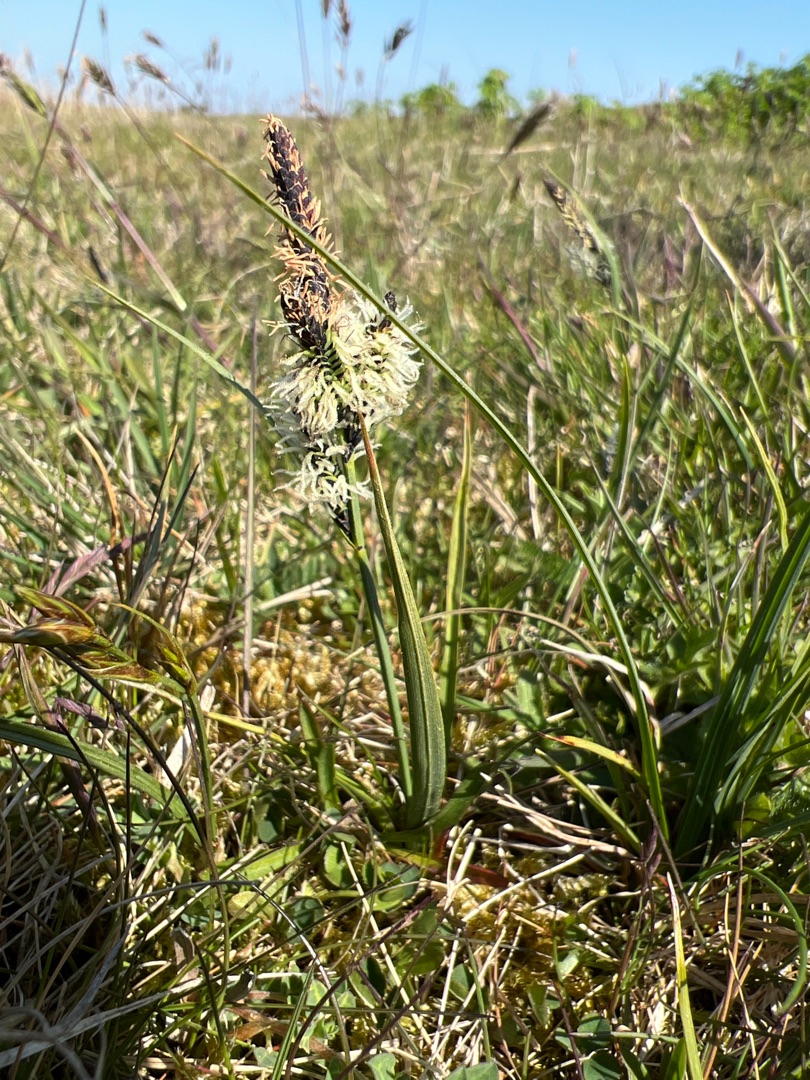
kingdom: Plantae
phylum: Tracheophyta
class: Liliopsida
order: Poales
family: Cyperaceae
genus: Carex
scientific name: Carex nigra
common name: Almindelig star
